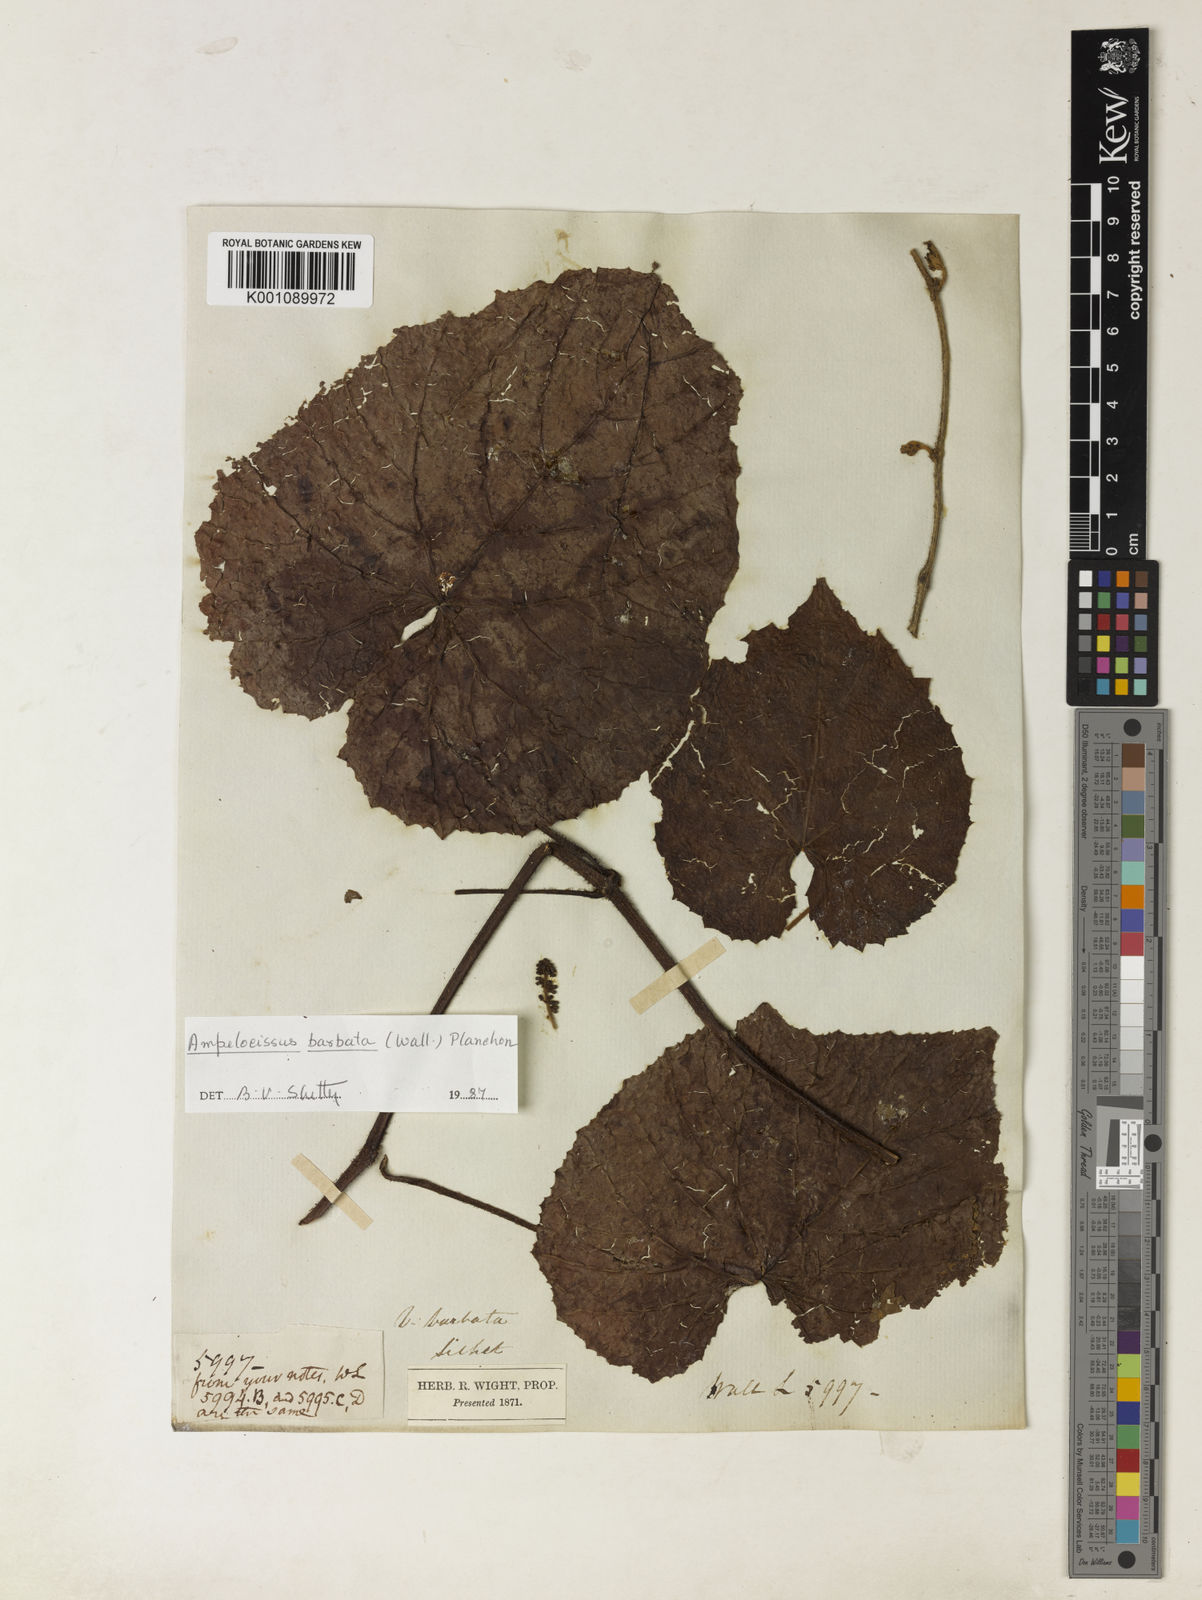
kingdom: Plantae
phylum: Tracheophyta
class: Magnoliopsida
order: Vitales
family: Vitaceae
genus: Ampelocissus
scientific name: Ampelocissus barbata
